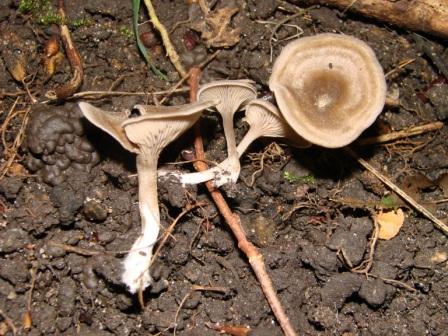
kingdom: Fungi
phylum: Basidiomycota
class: Agaricomycetes
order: Agaricales
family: Entolomataceae
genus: Entoloma
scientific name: Entoloma undatum
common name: bæltet rødblad
